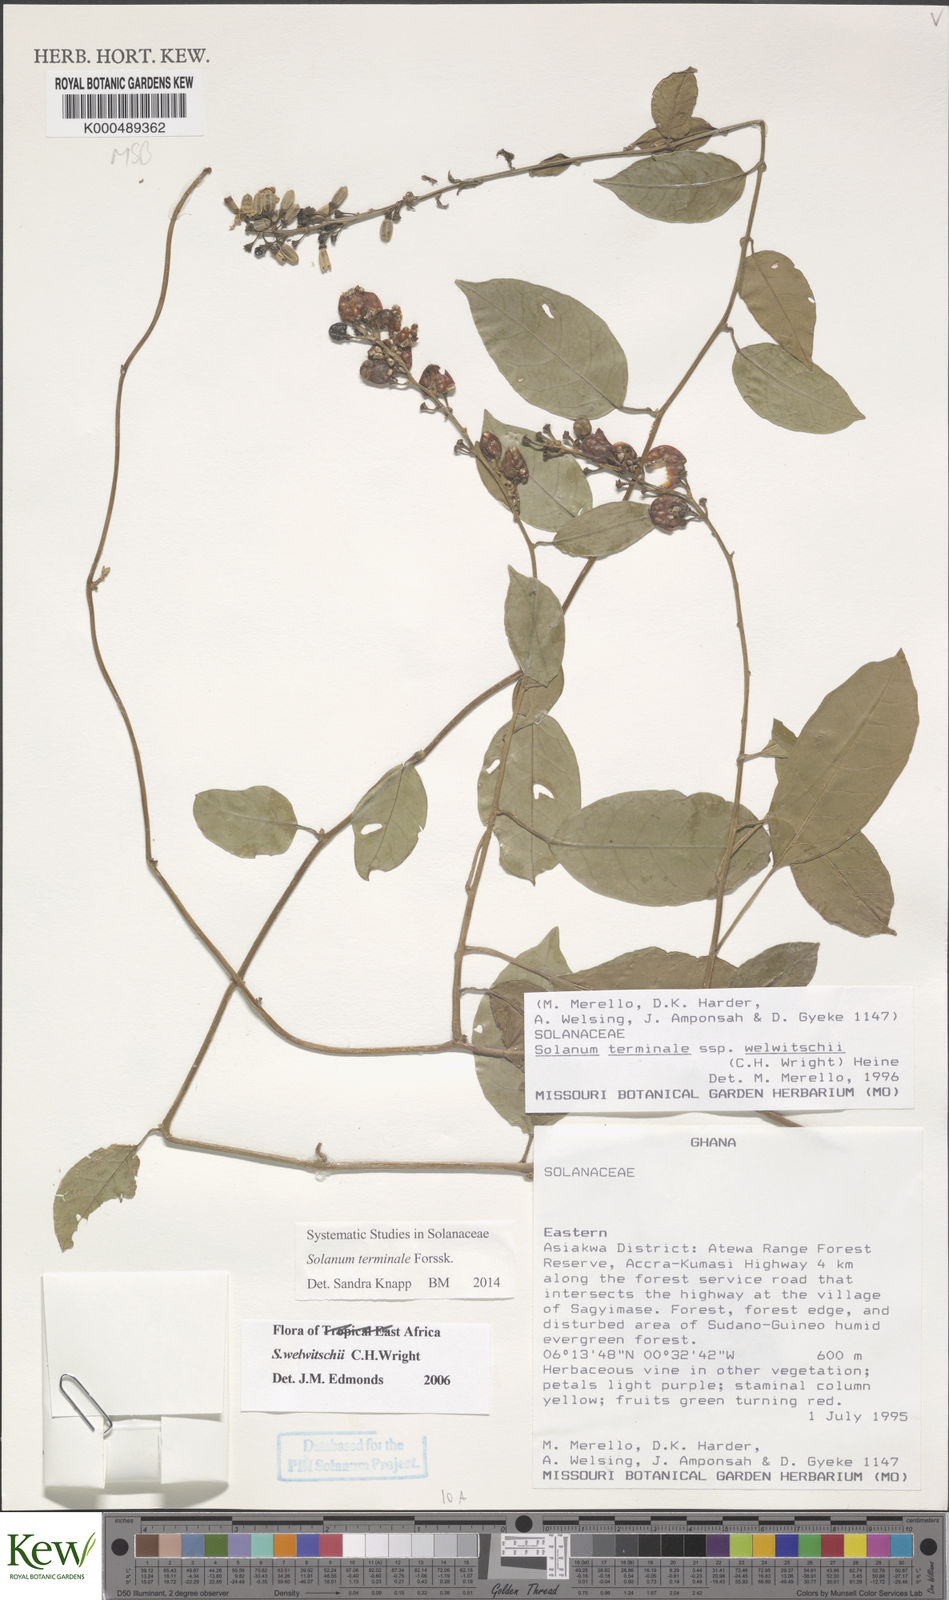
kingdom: Plantae
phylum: Tracheophyta
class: Magnoliopsida
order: Solanales
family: Solanaceae
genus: Solanum
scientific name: Solanum terminale
